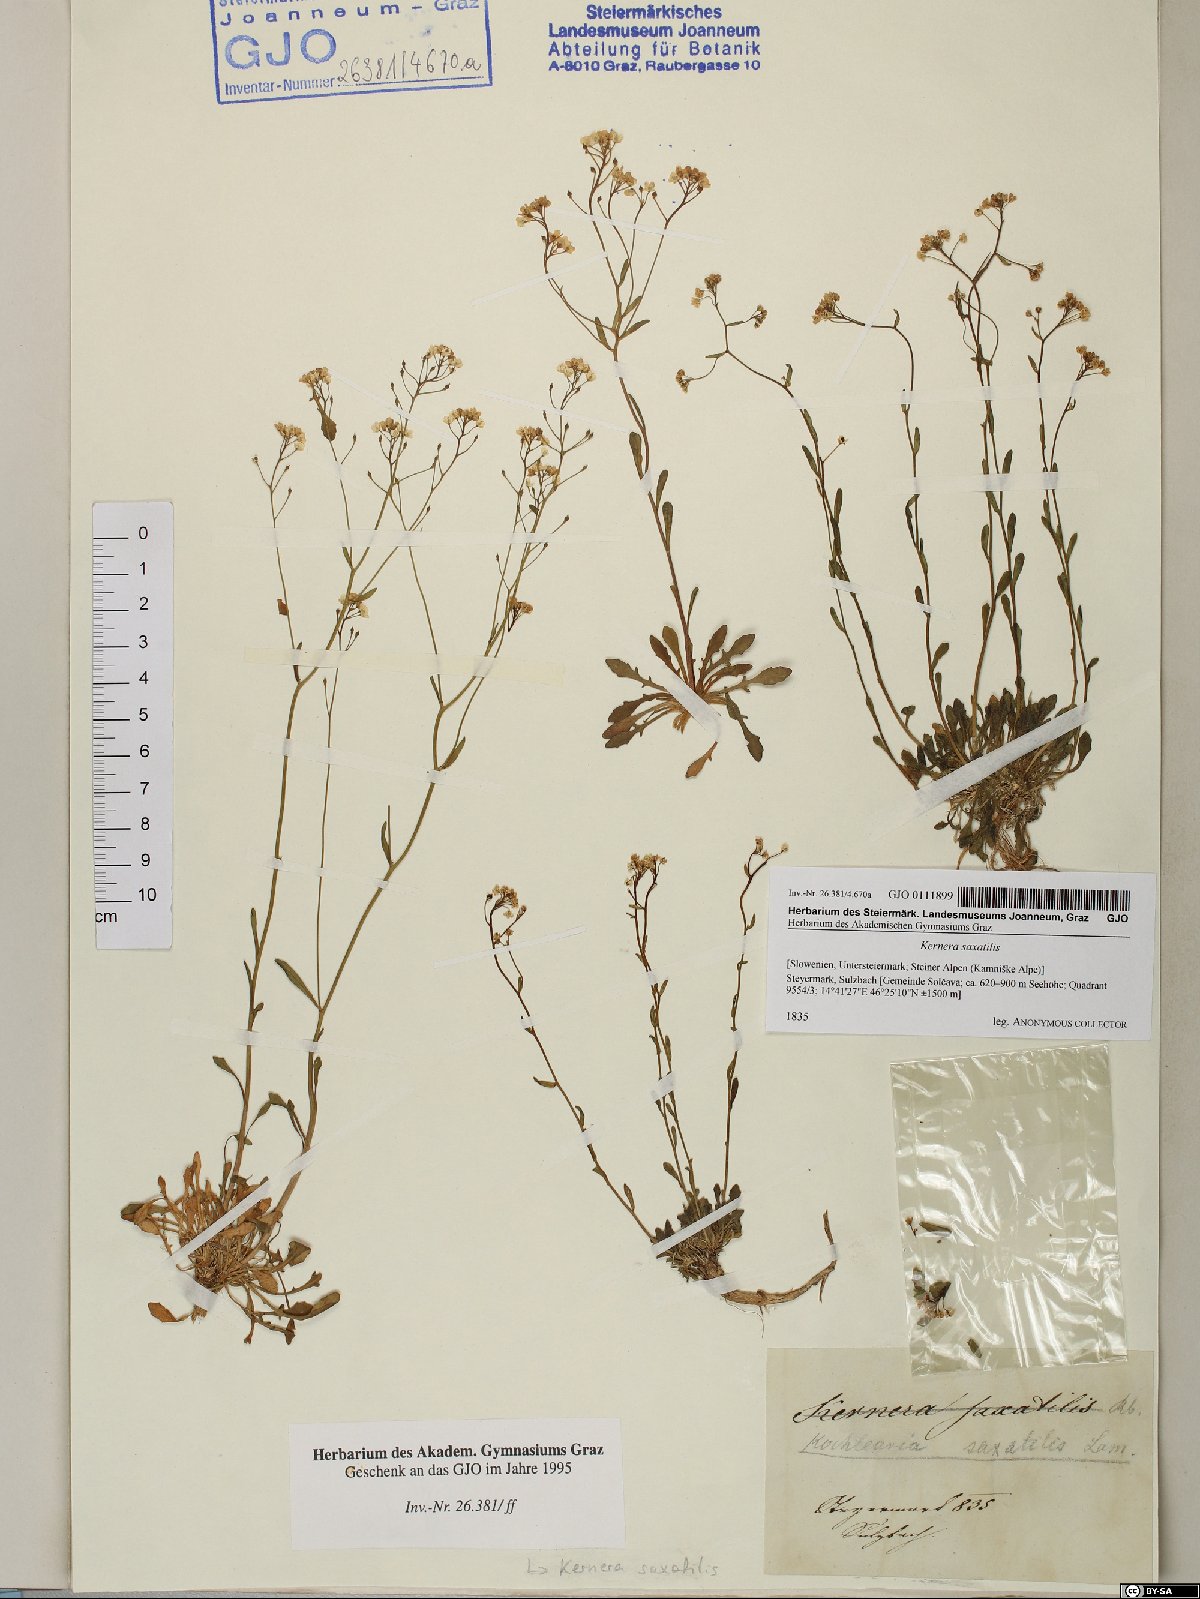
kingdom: Plantae
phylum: Tracheophyta
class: Magnoliopsida
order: Brassicales
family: Brassicaceae
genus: Kernera
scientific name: Kernera saxatilis
